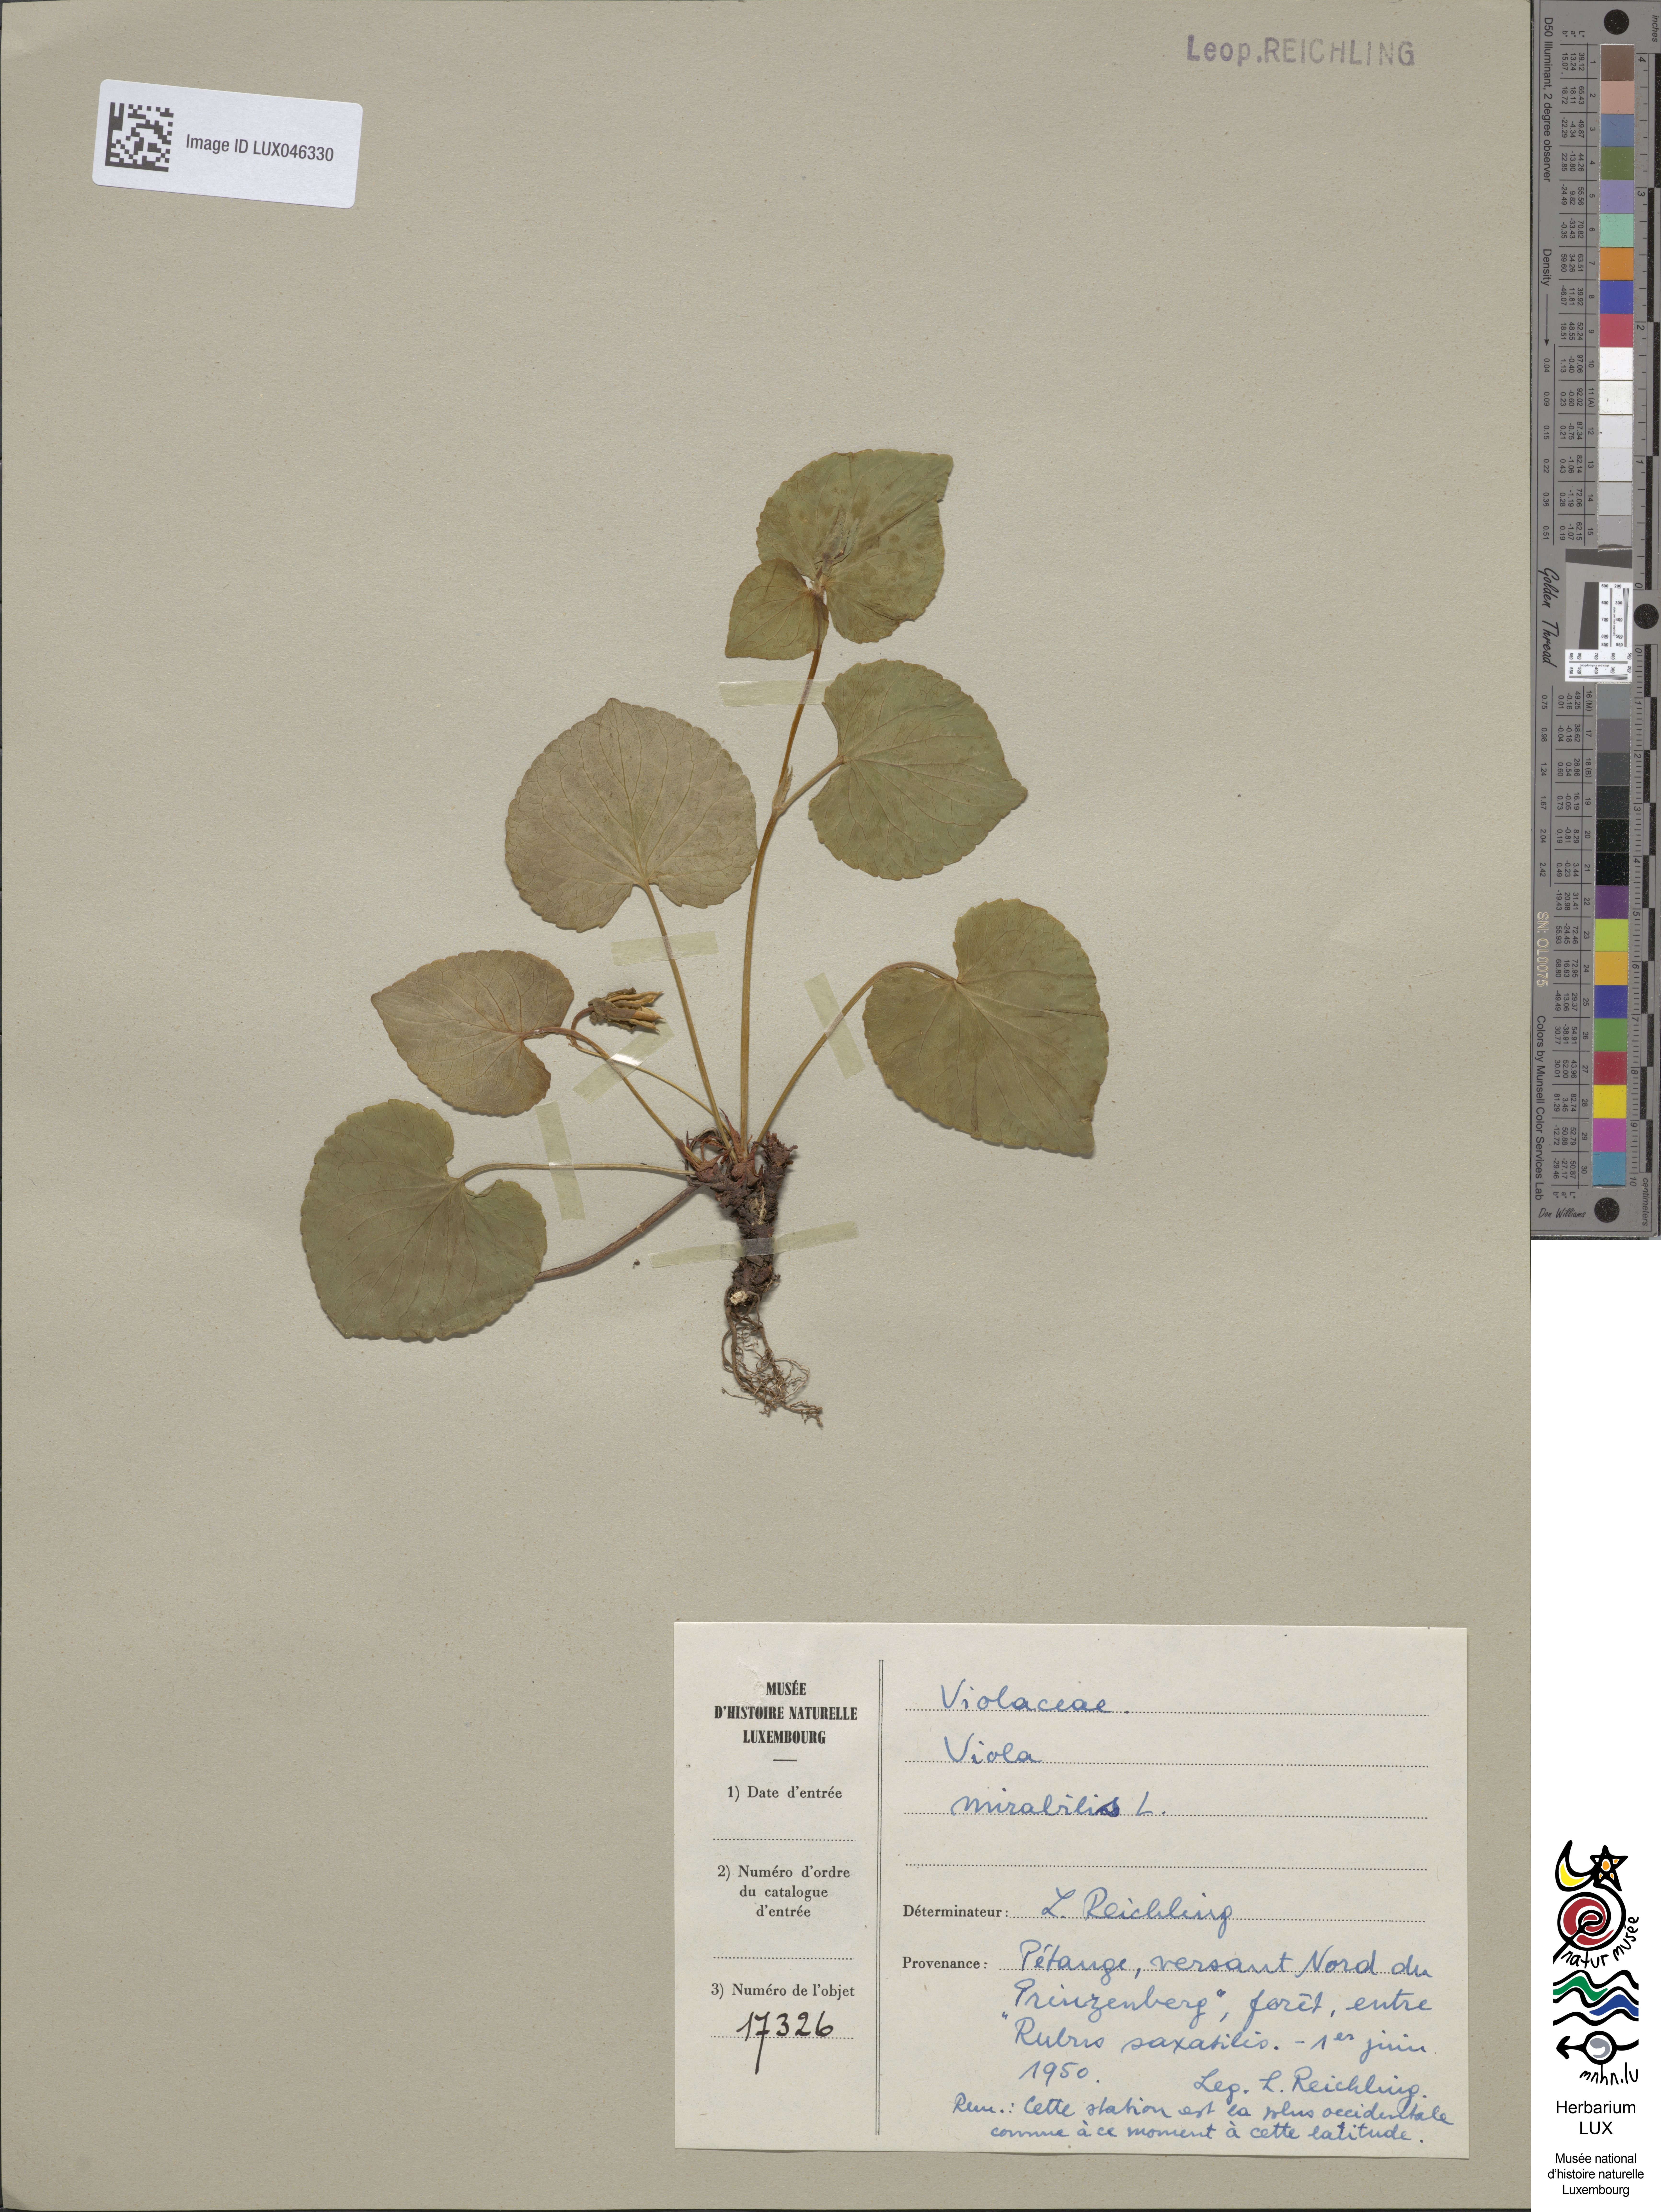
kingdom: Plantae
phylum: Tracheophyta
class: Magnoliopsida
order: Malpighiales
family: Violaceae
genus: Viola
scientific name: Viola mirabilis
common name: Wonder violet
